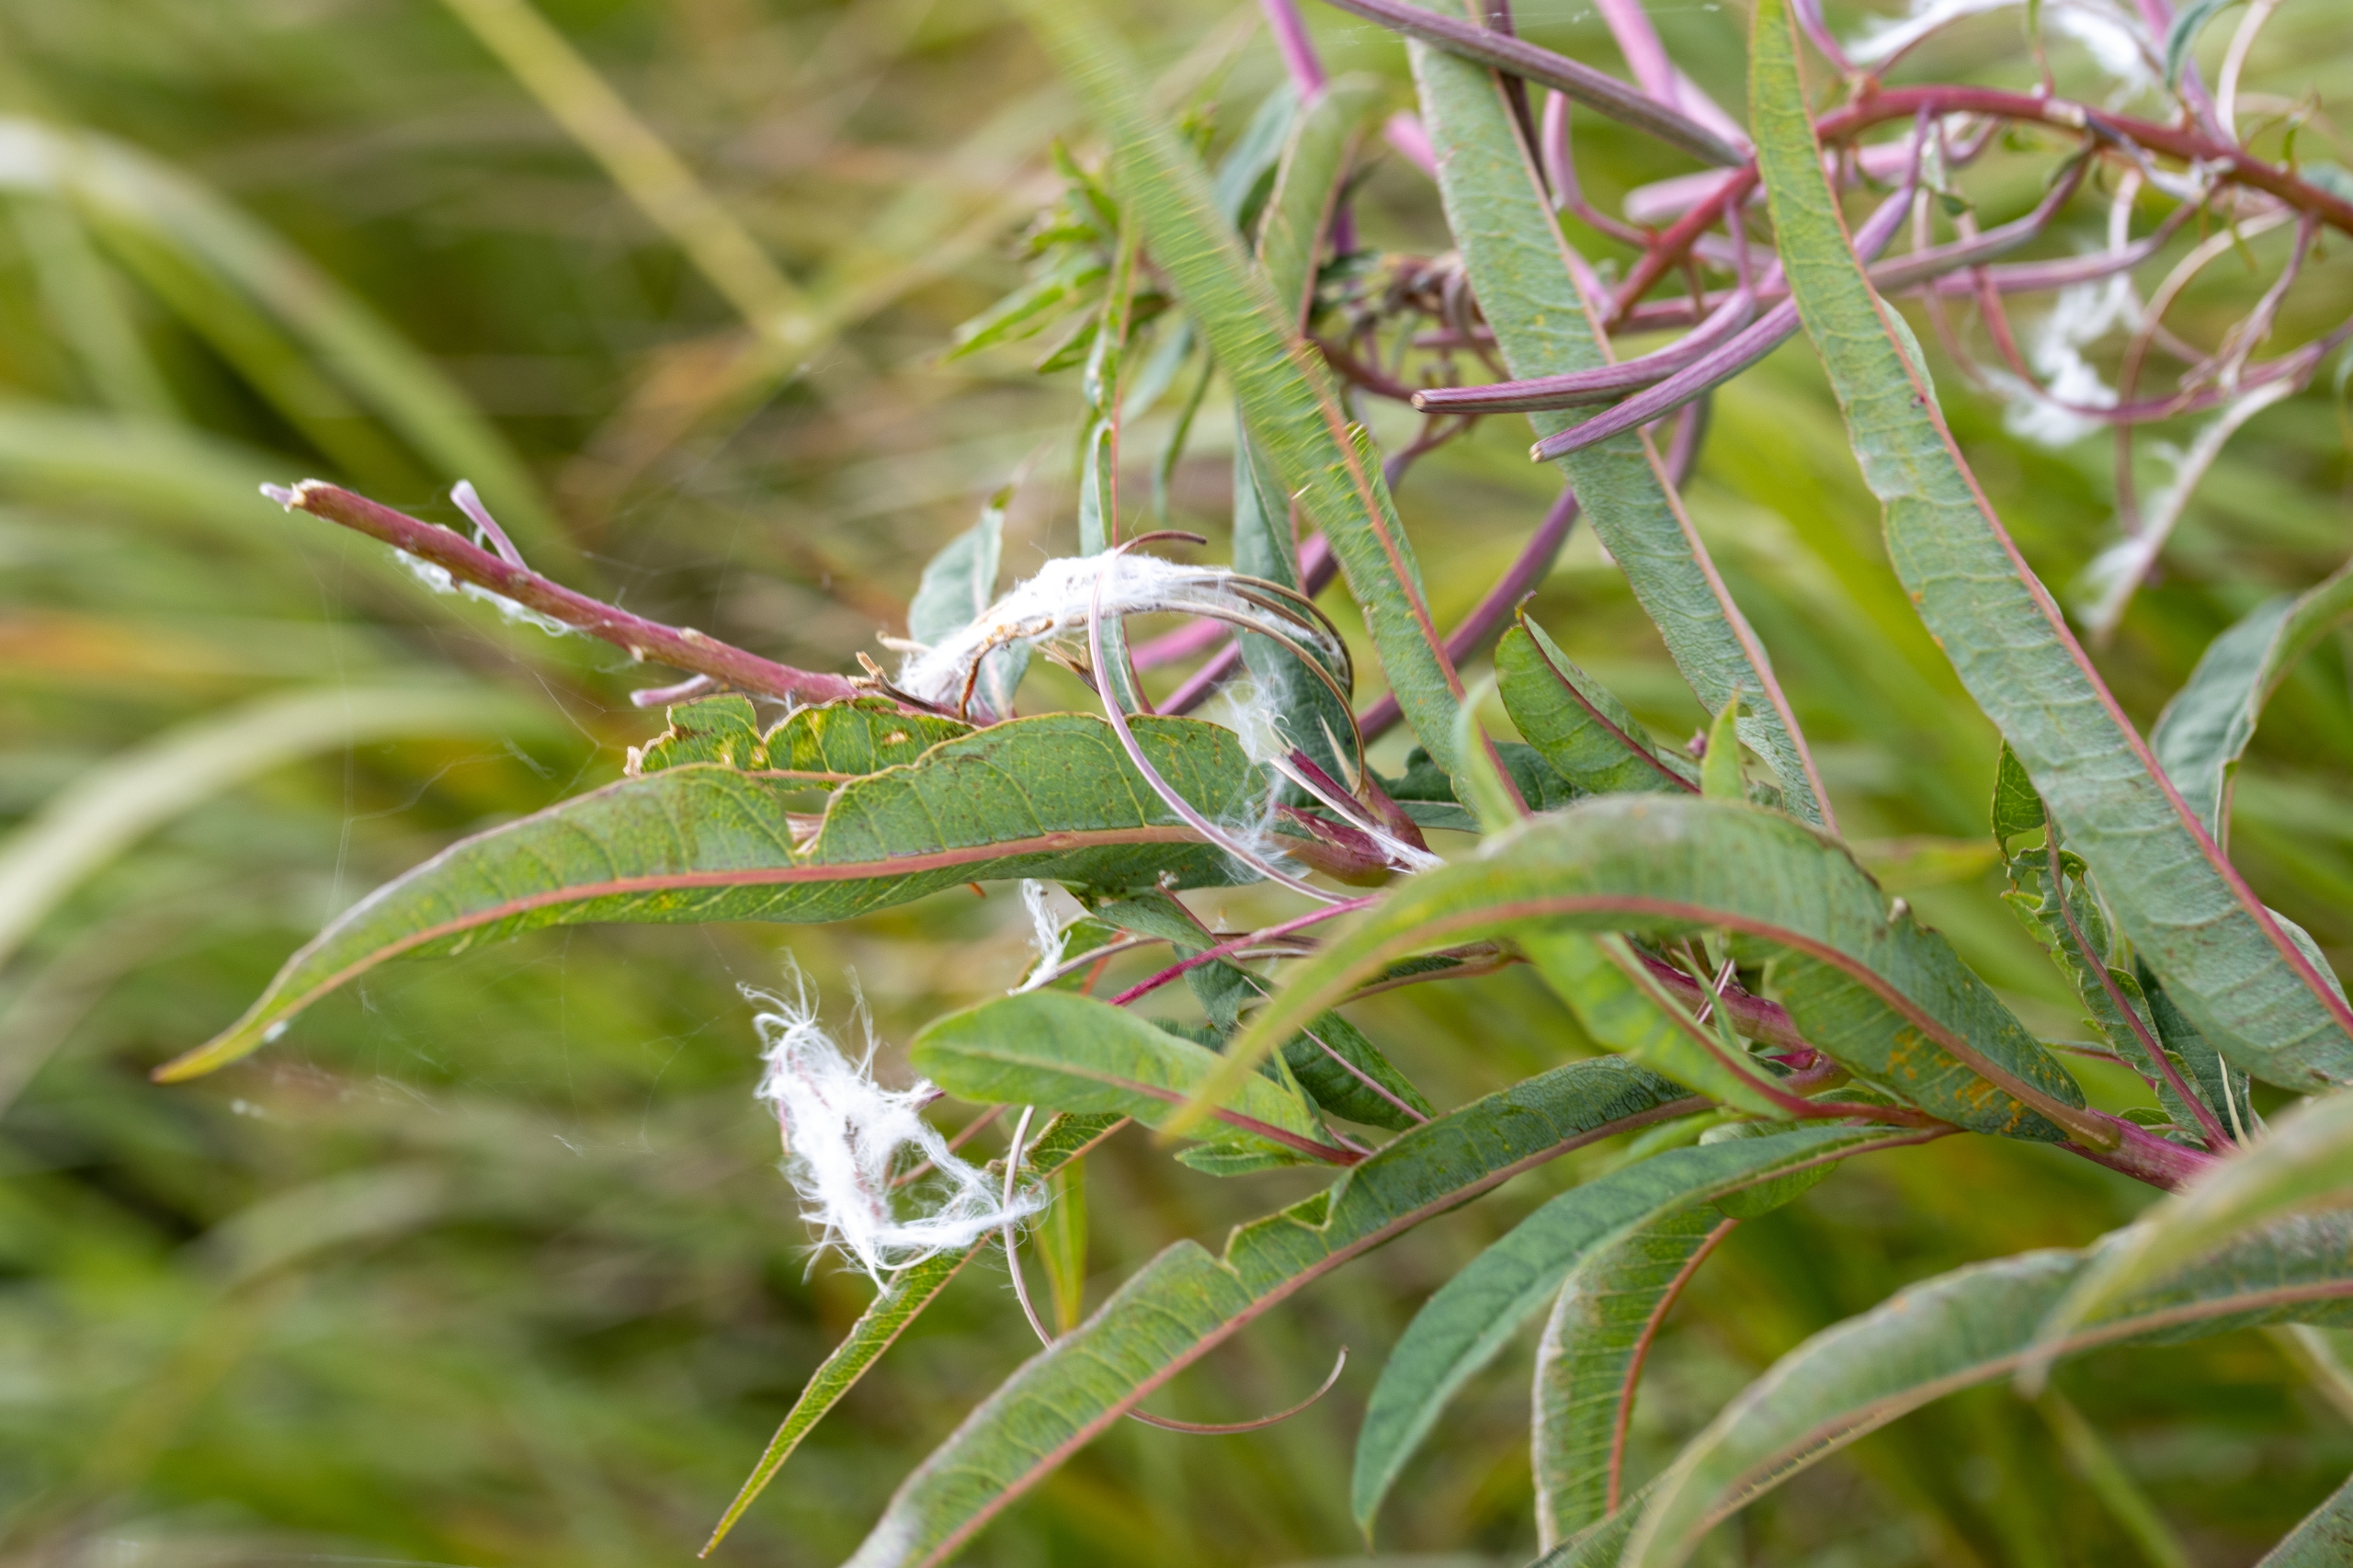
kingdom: Plantae
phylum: Tracheophyta
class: Magnoliopsida
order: Myrtales
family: Onagraceae
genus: Chamaenerion
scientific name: Chamaenerion angustifolium
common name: Gederams
